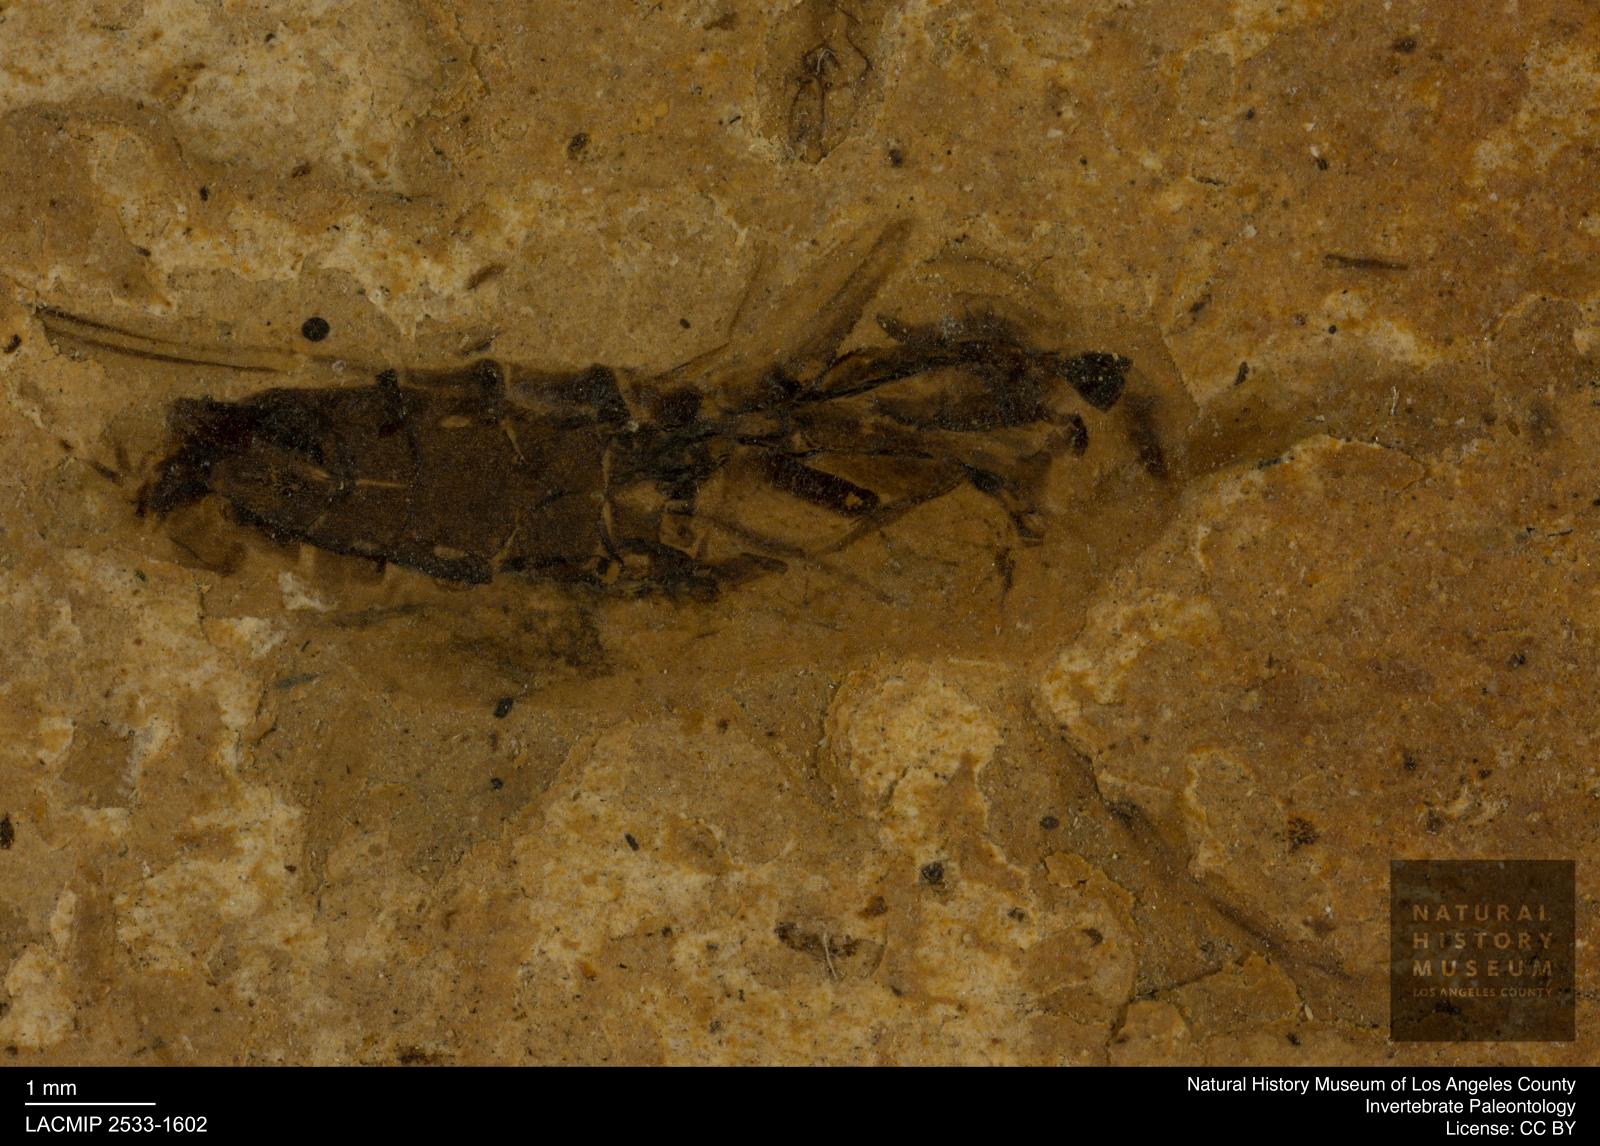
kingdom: Animalia
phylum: Arthropoda
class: Insecta
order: Hemiptera
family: Notonectidae
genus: Notonecta
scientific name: Notonecta
